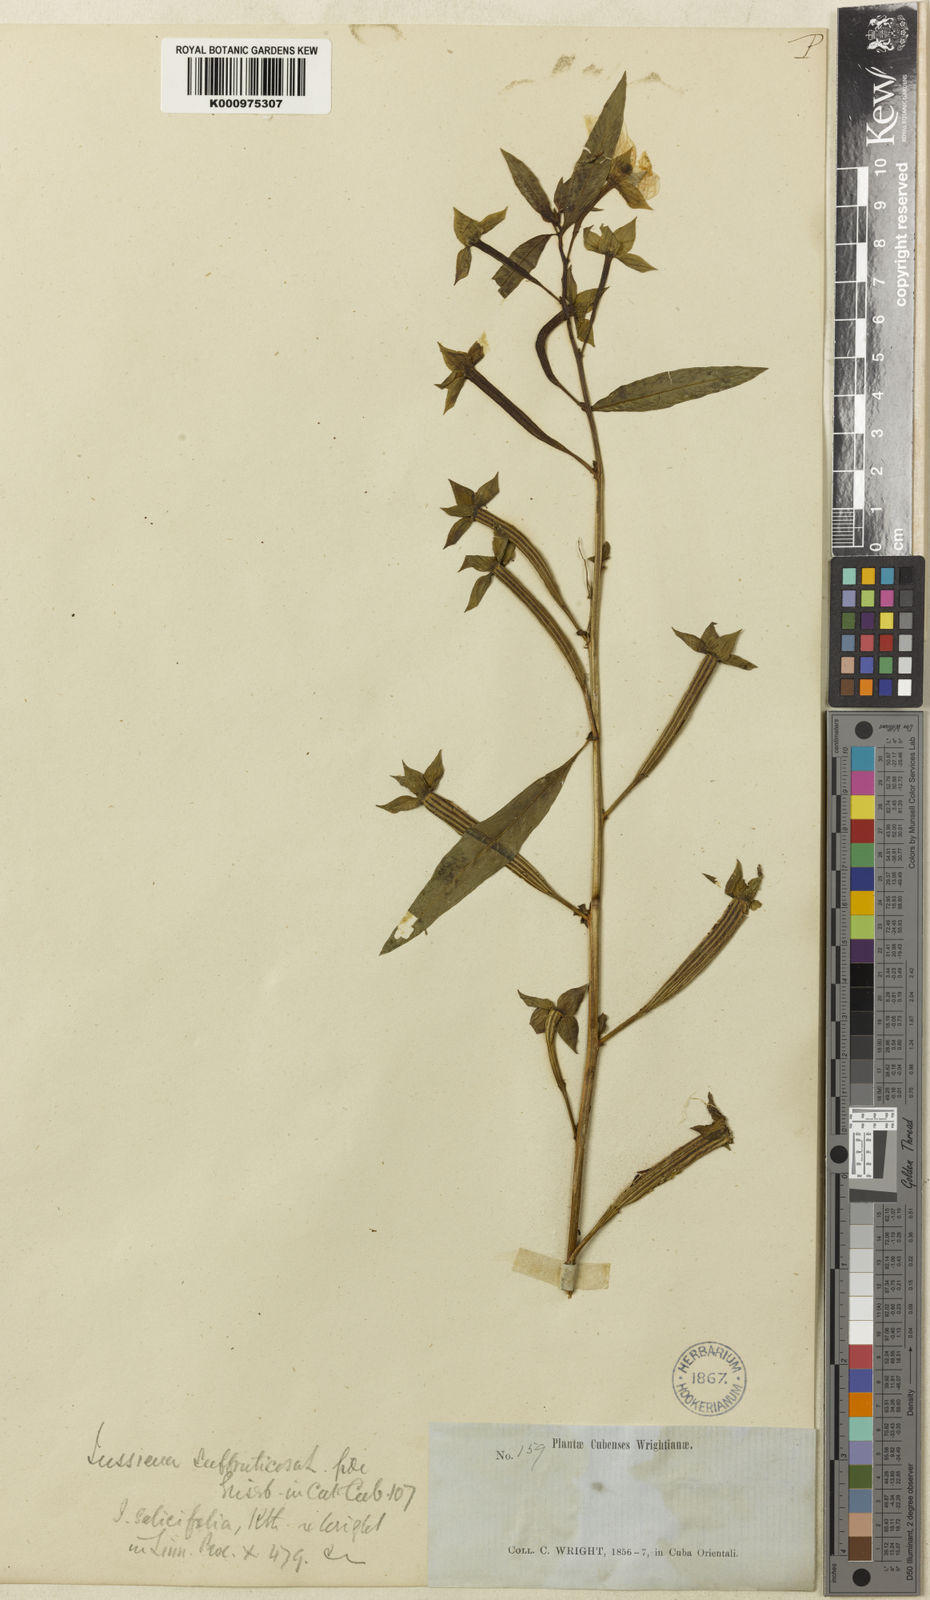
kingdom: Plantae
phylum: Tracheophyta
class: Magnoliopsida
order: Myrtales
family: Onagraceae
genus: Ludwigia
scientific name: Ludwigia octovalvis
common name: Water-primrose
